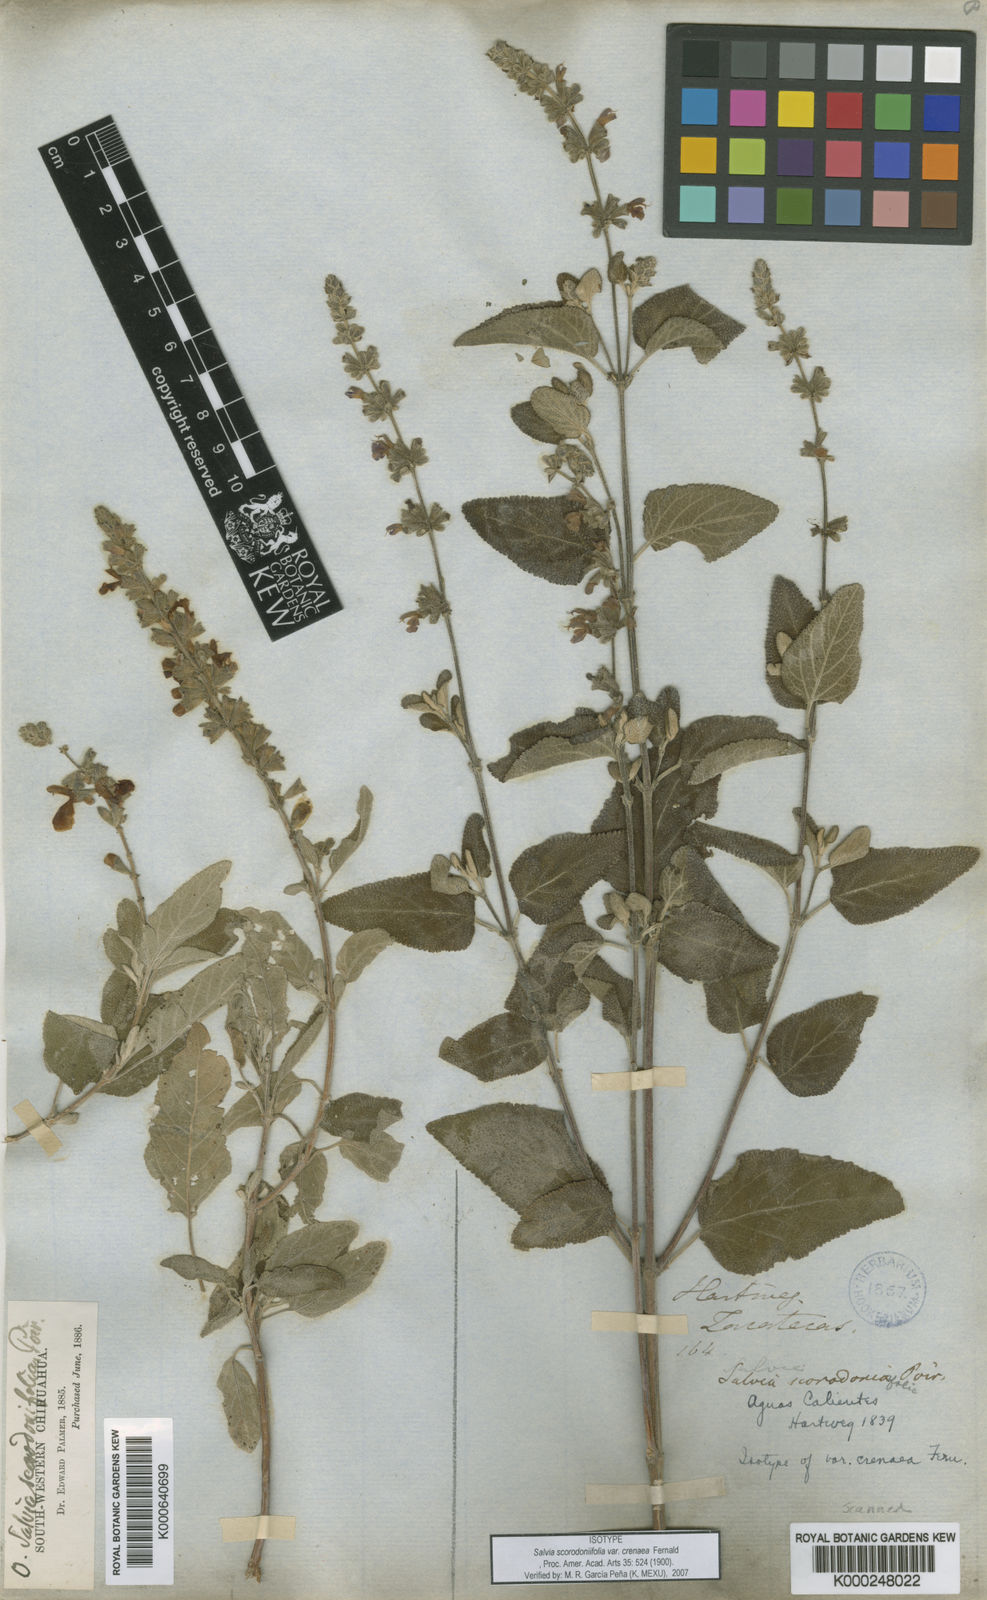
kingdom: Plantae
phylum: Tracheophyta
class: Magnoliopsida
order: Lamiales
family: Lamiaceae
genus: Salvia
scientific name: Salvia melissodora
